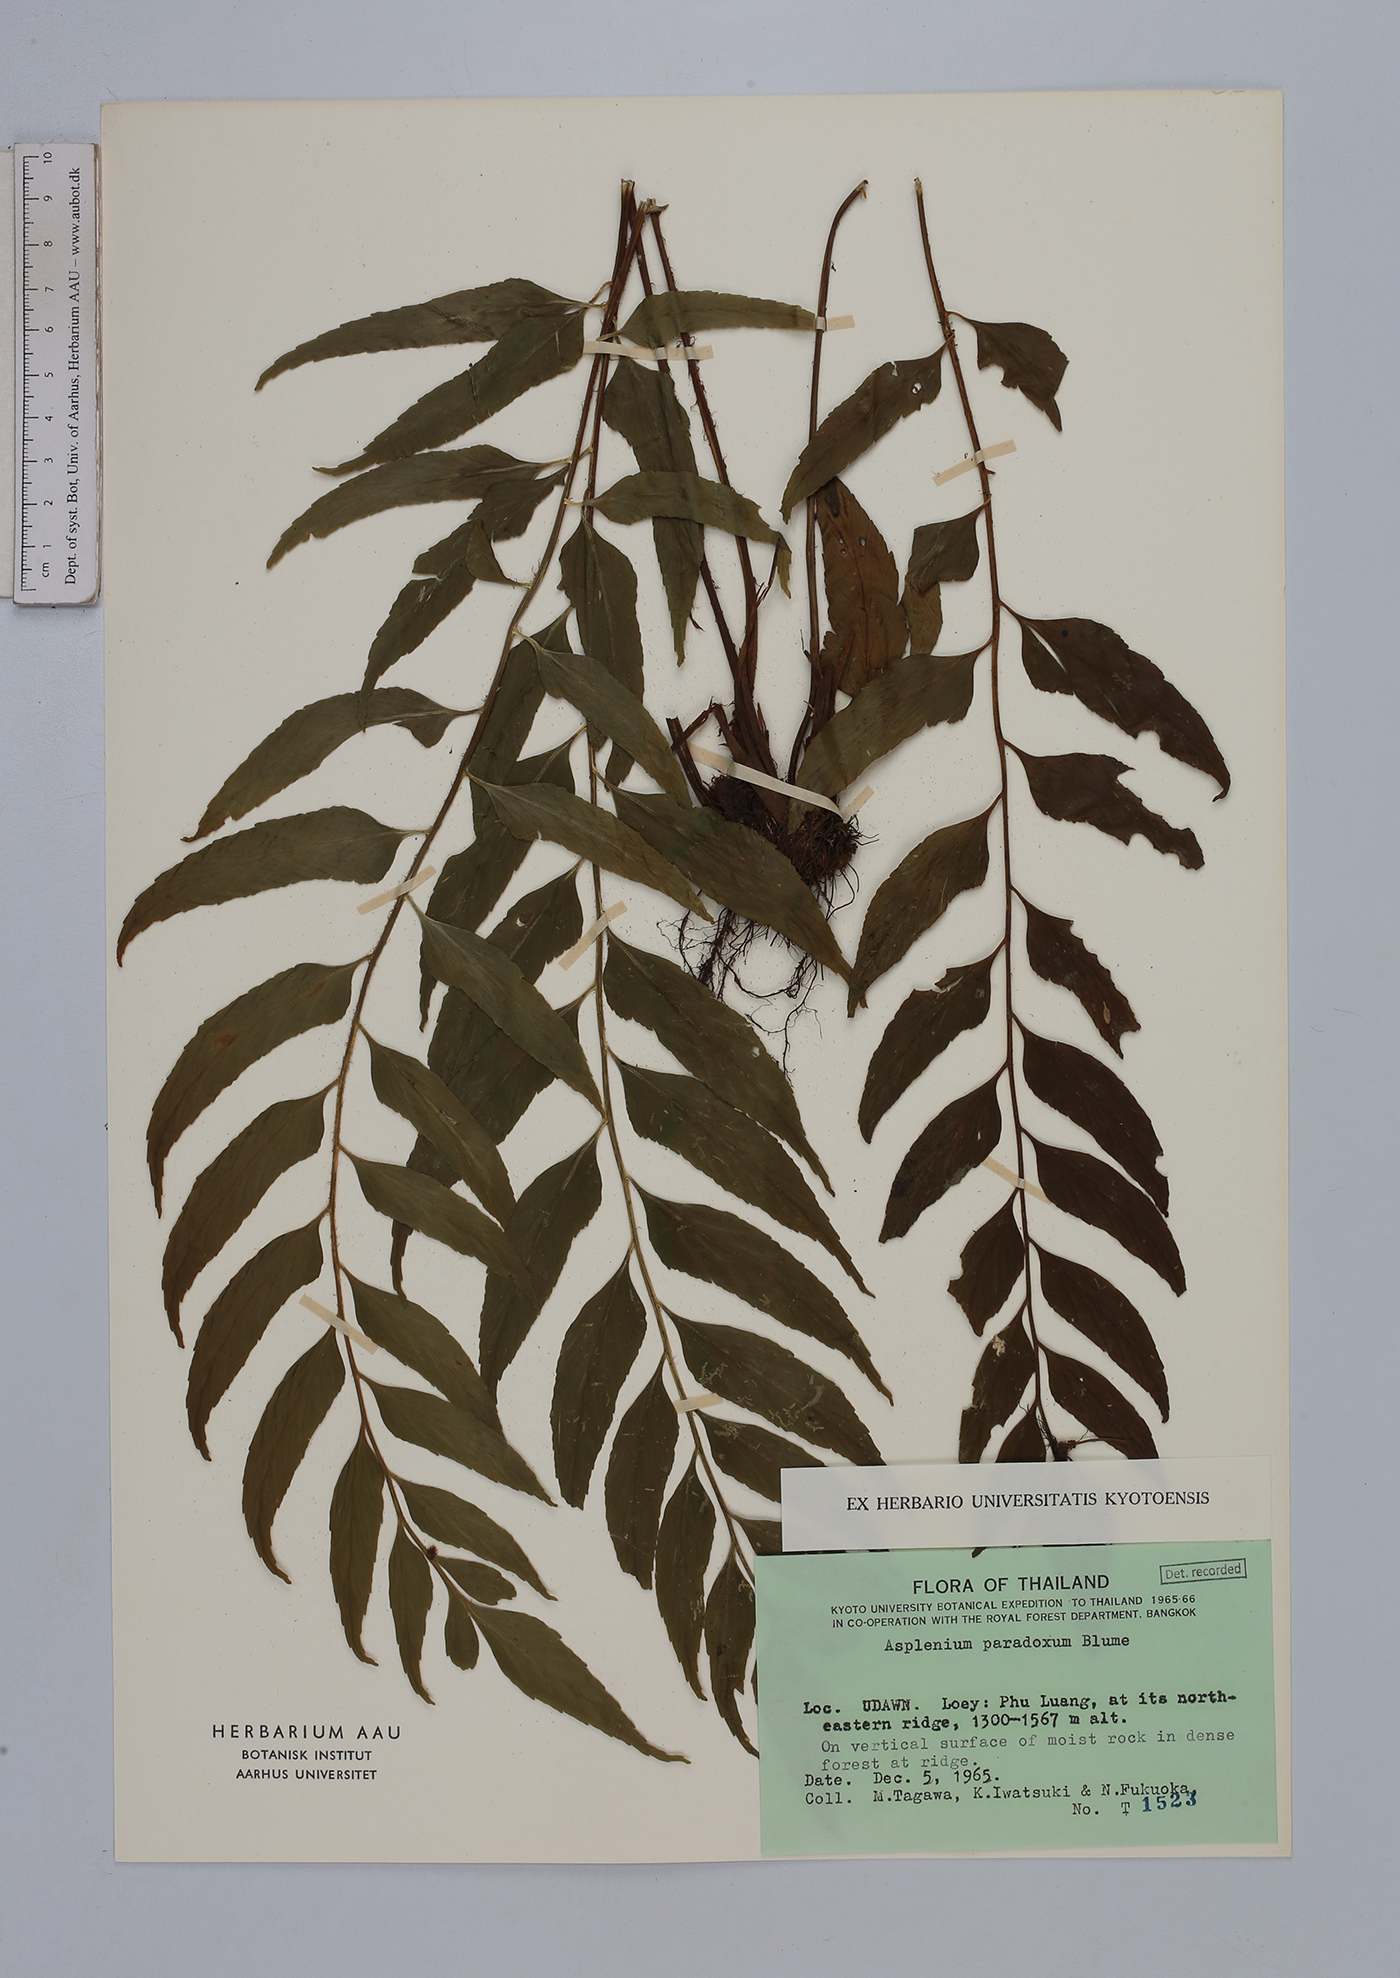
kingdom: Plantae
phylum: Tracheophyta
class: Polypodiopsida
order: Polypodiales
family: Aspleniaceae
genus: Asplenium
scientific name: Asplenium falcatum
